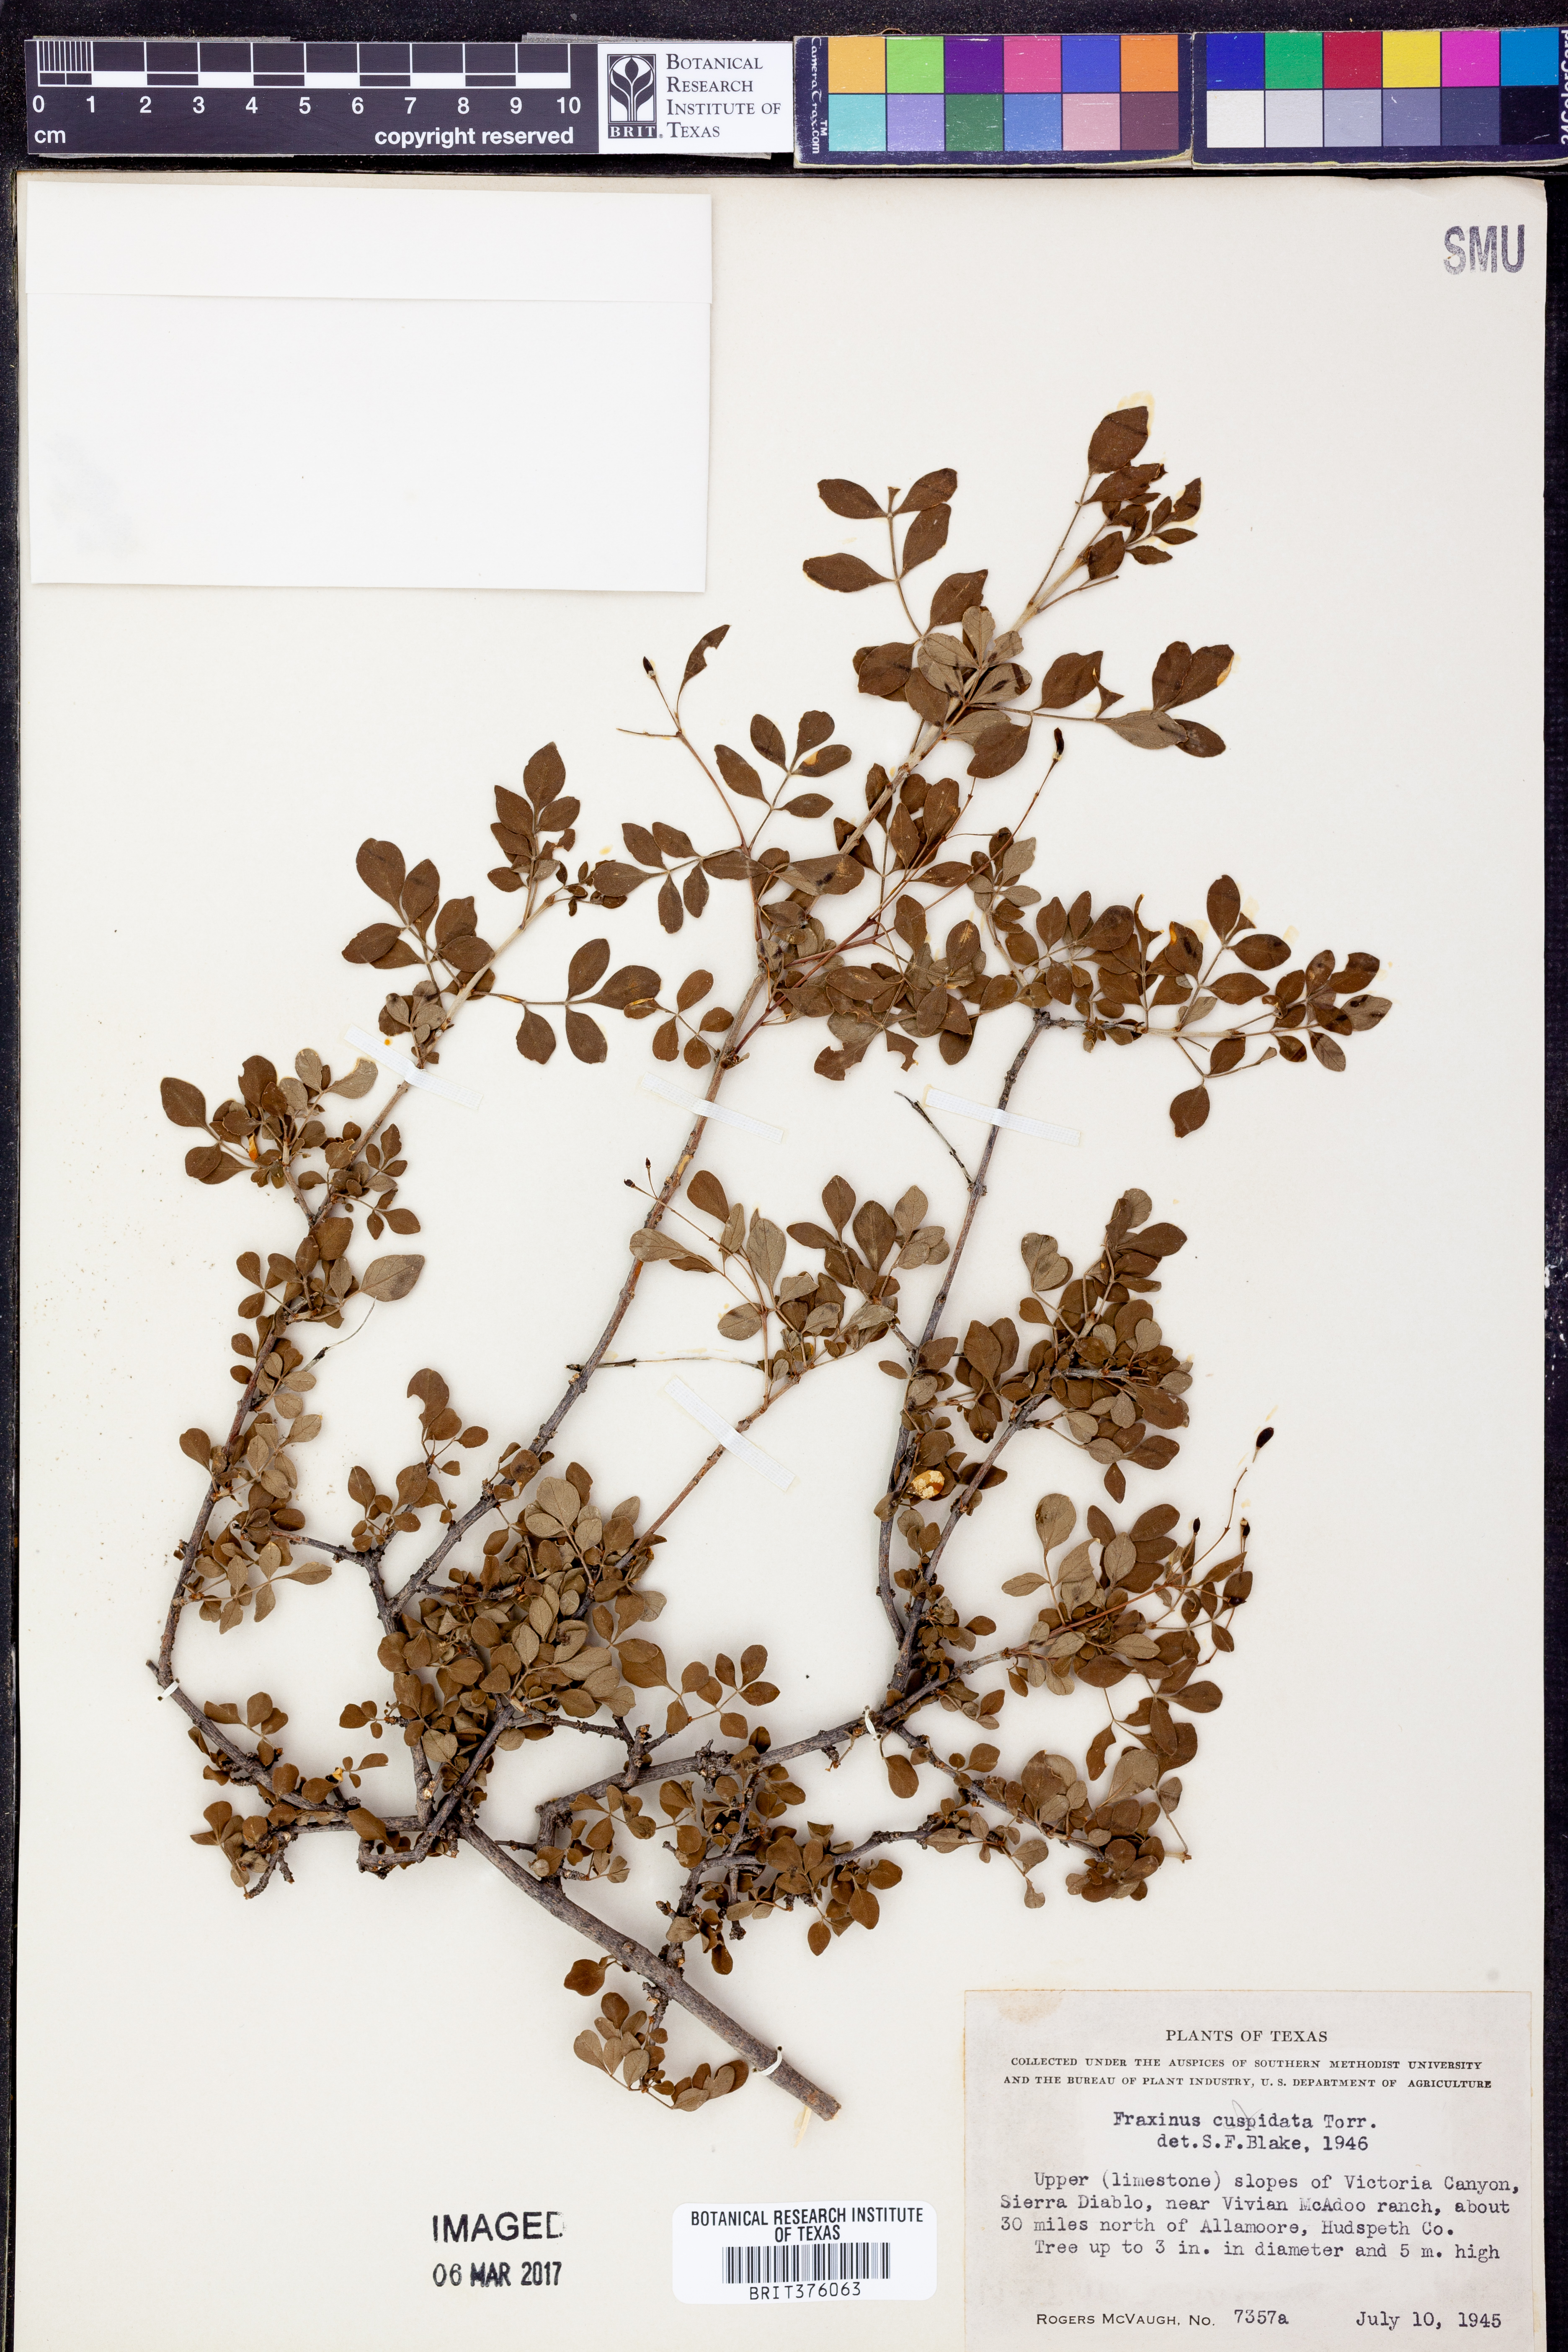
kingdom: Plantae
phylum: Tracheophyta
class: Magnoliopsida
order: Lamiales
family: Oleaceae
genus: Fraxinus
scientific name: Fraxinus cuspidata
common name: Fragrant ash
